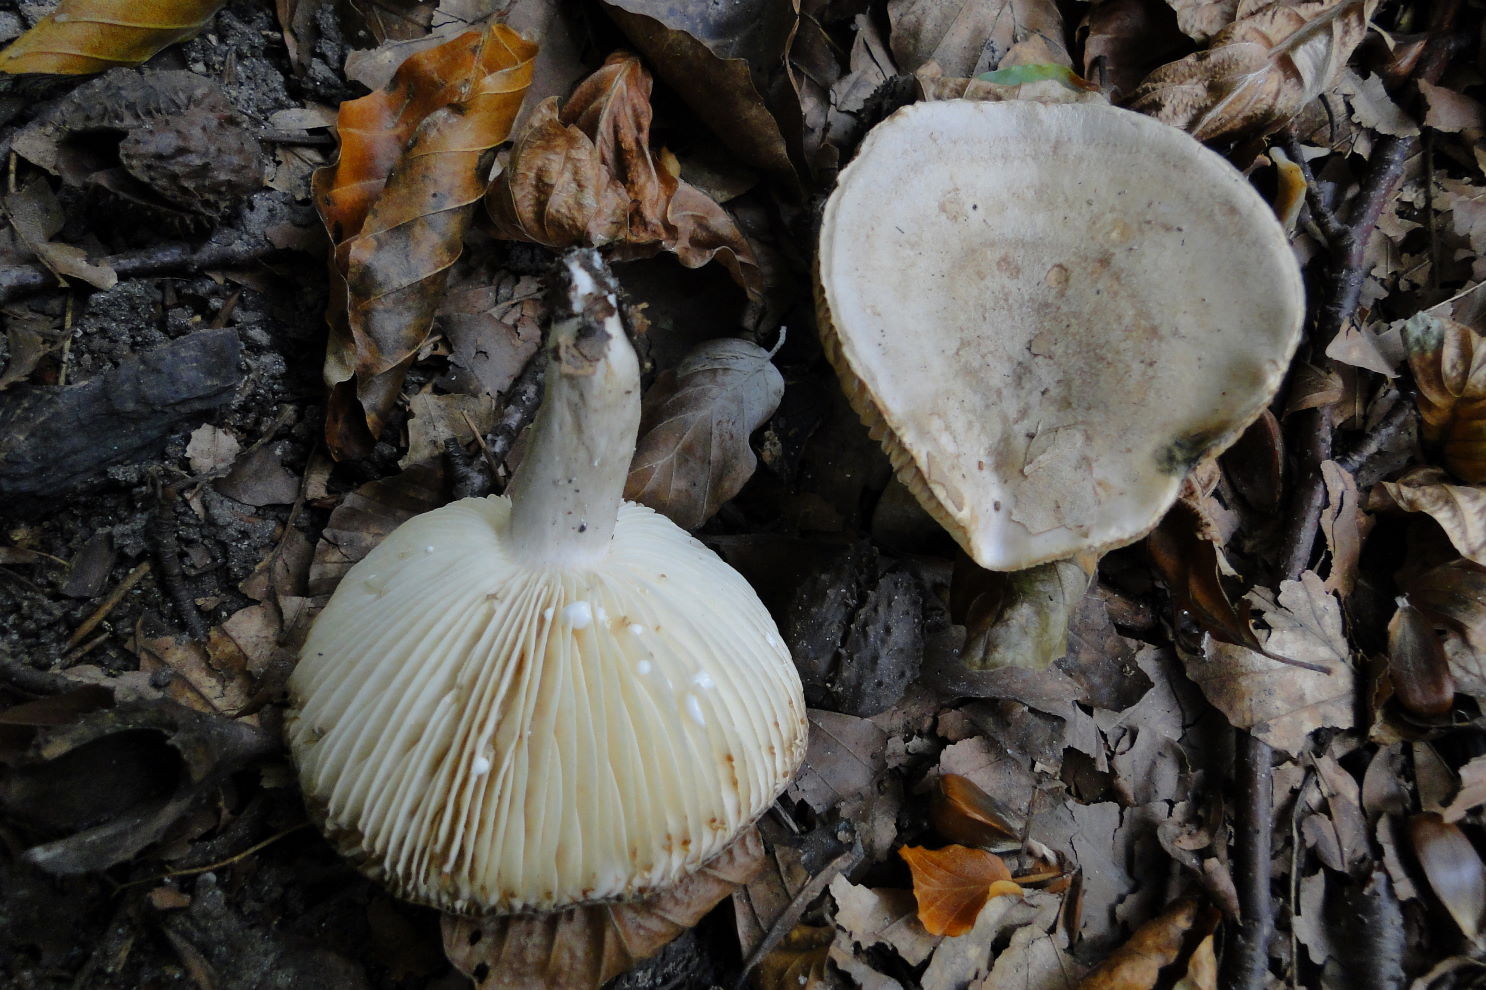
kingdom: Fungi
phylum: Basidiomycota
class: Agaricomycetes
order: Russulales
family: Russulaceae
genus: Lactarius
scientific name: Lactarius fluens
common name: lysrandet mælkehat
